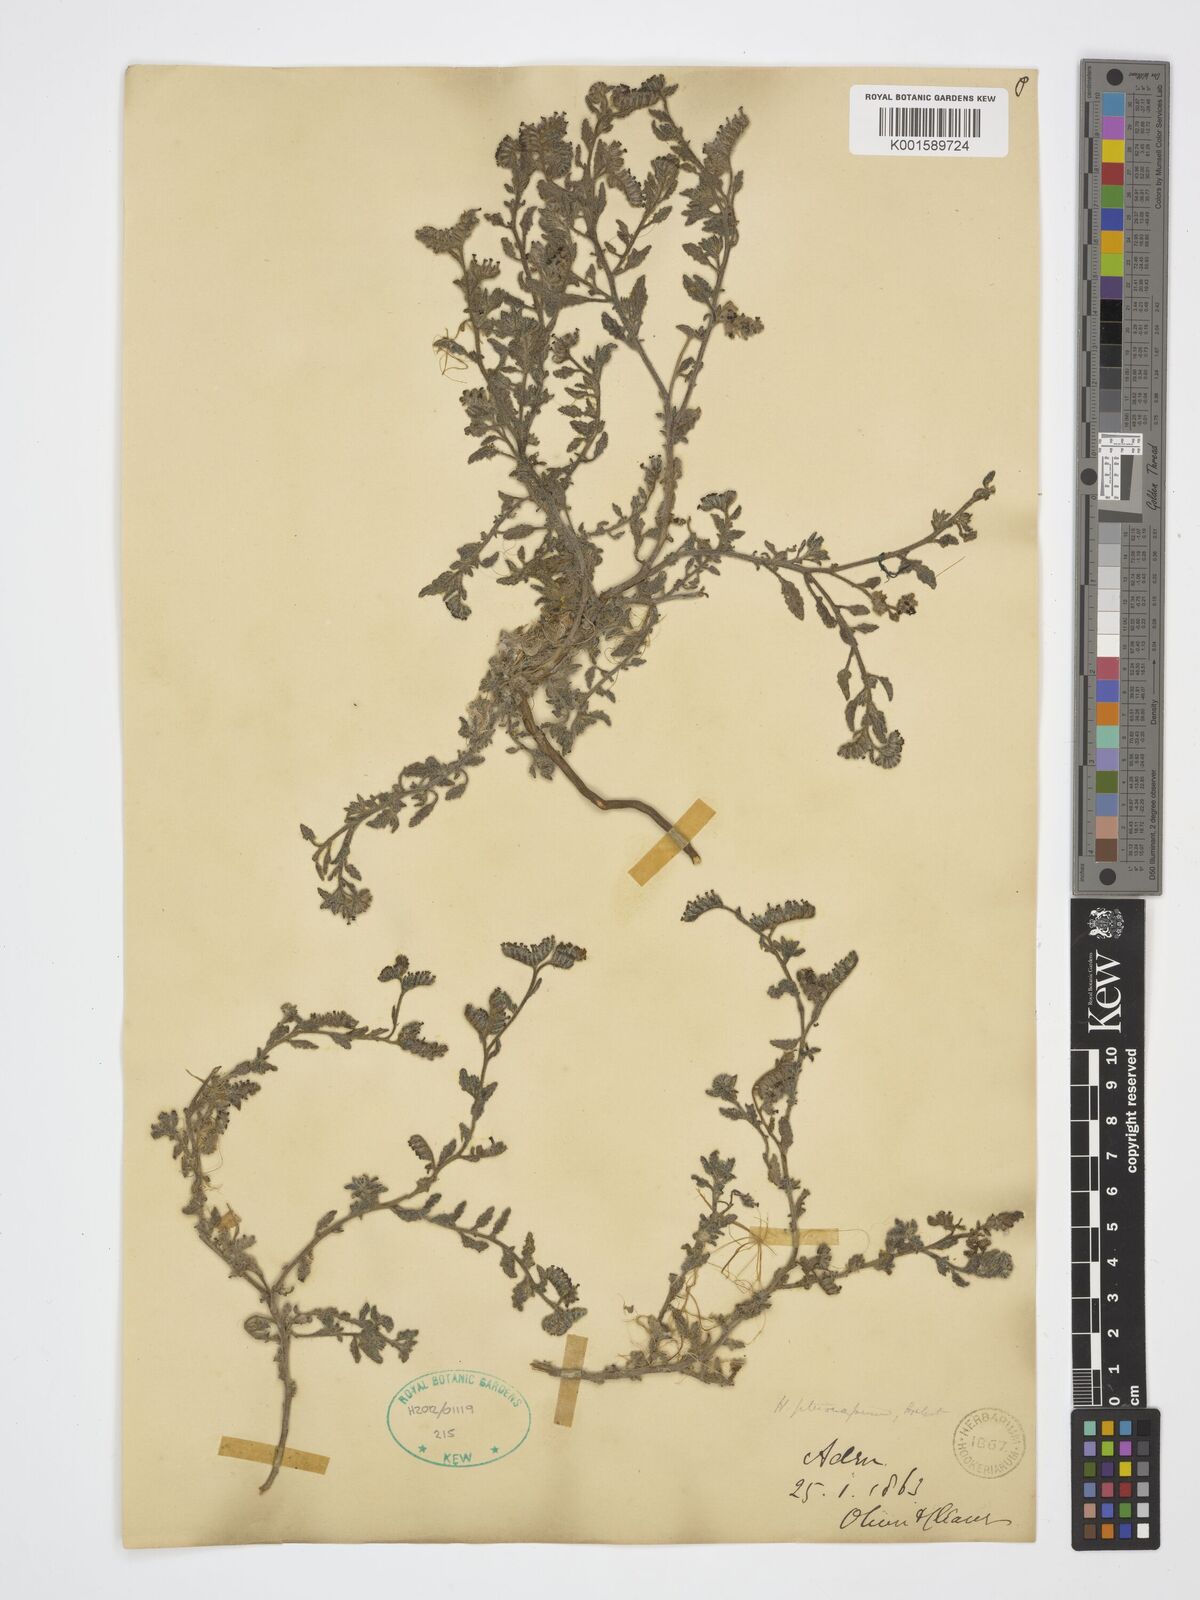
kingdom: Plantae
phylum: Tracheophyta
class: Magnoliopsida
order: Boraginales
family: Heliotropiaceae
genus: Heliotropium
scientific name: Heliotropium pterocarpum
